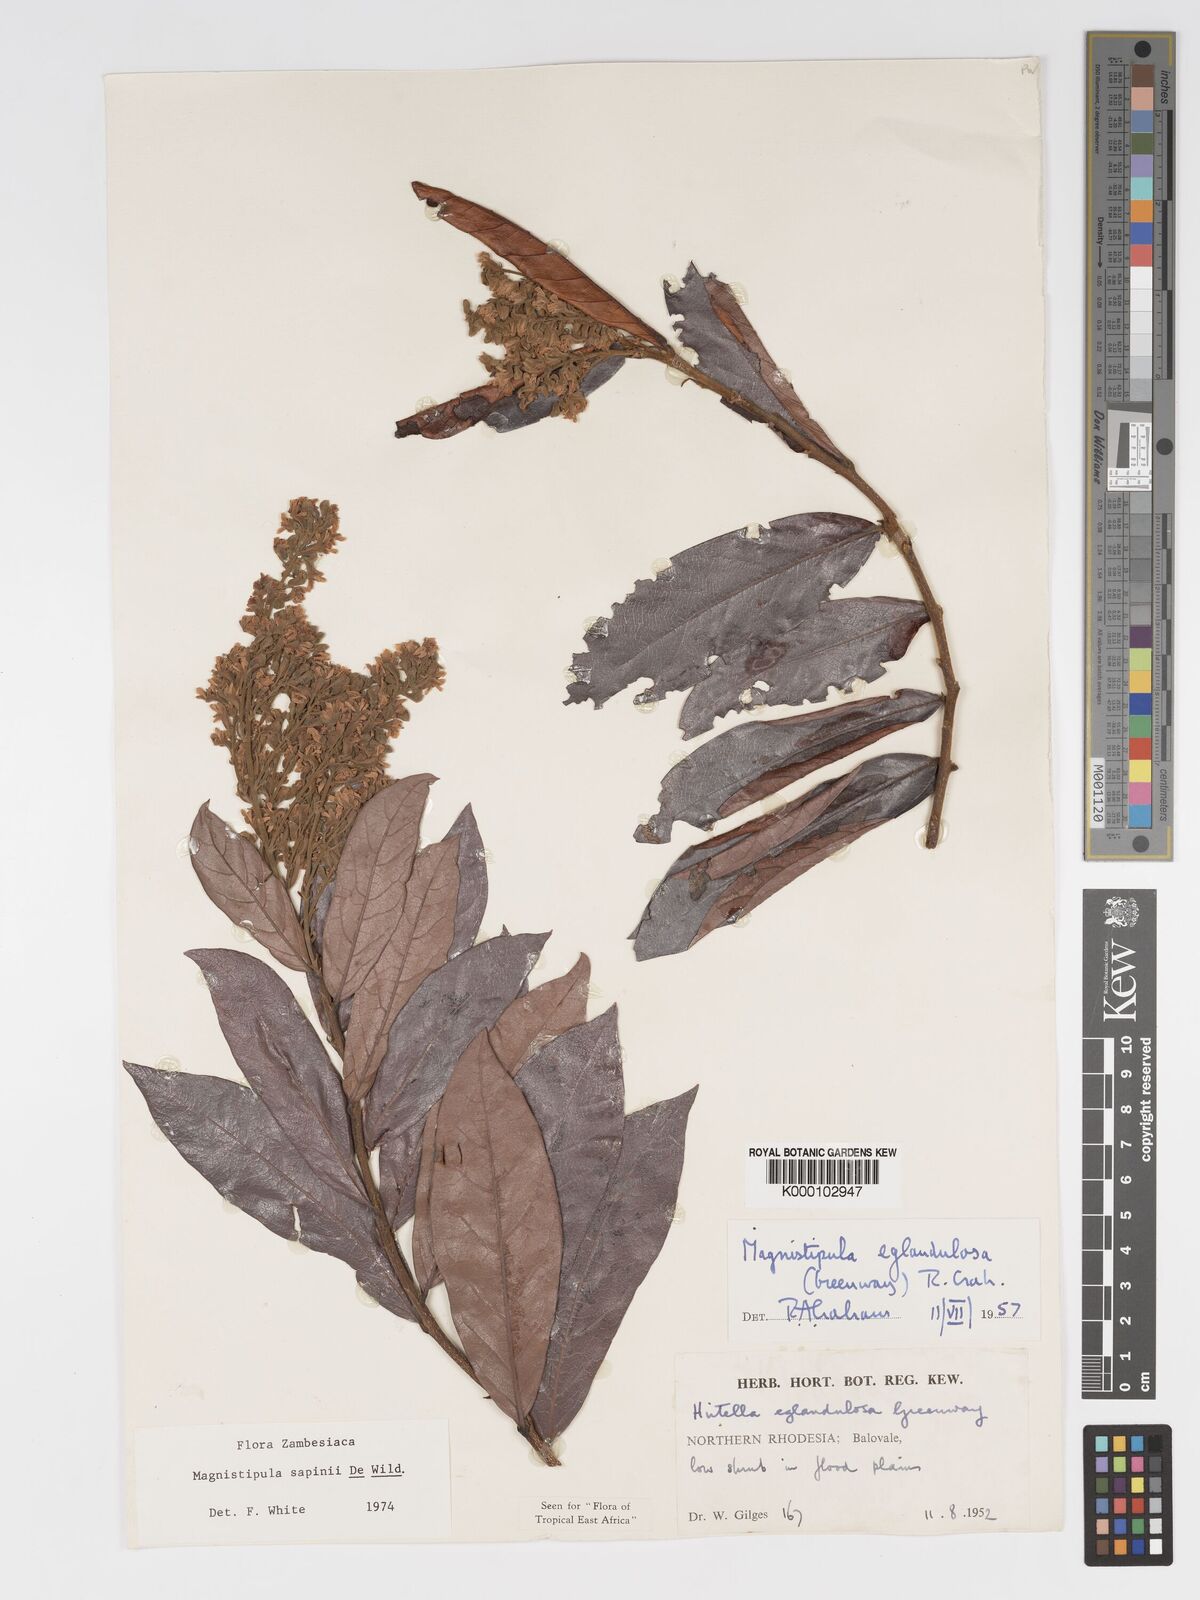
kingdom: Plantae
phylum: Tracheophyta
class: Magnoliopsida
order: Malpighiales
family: Chrysobalanaceae
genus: Magnistipula
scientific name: Magnistipula sapinii
